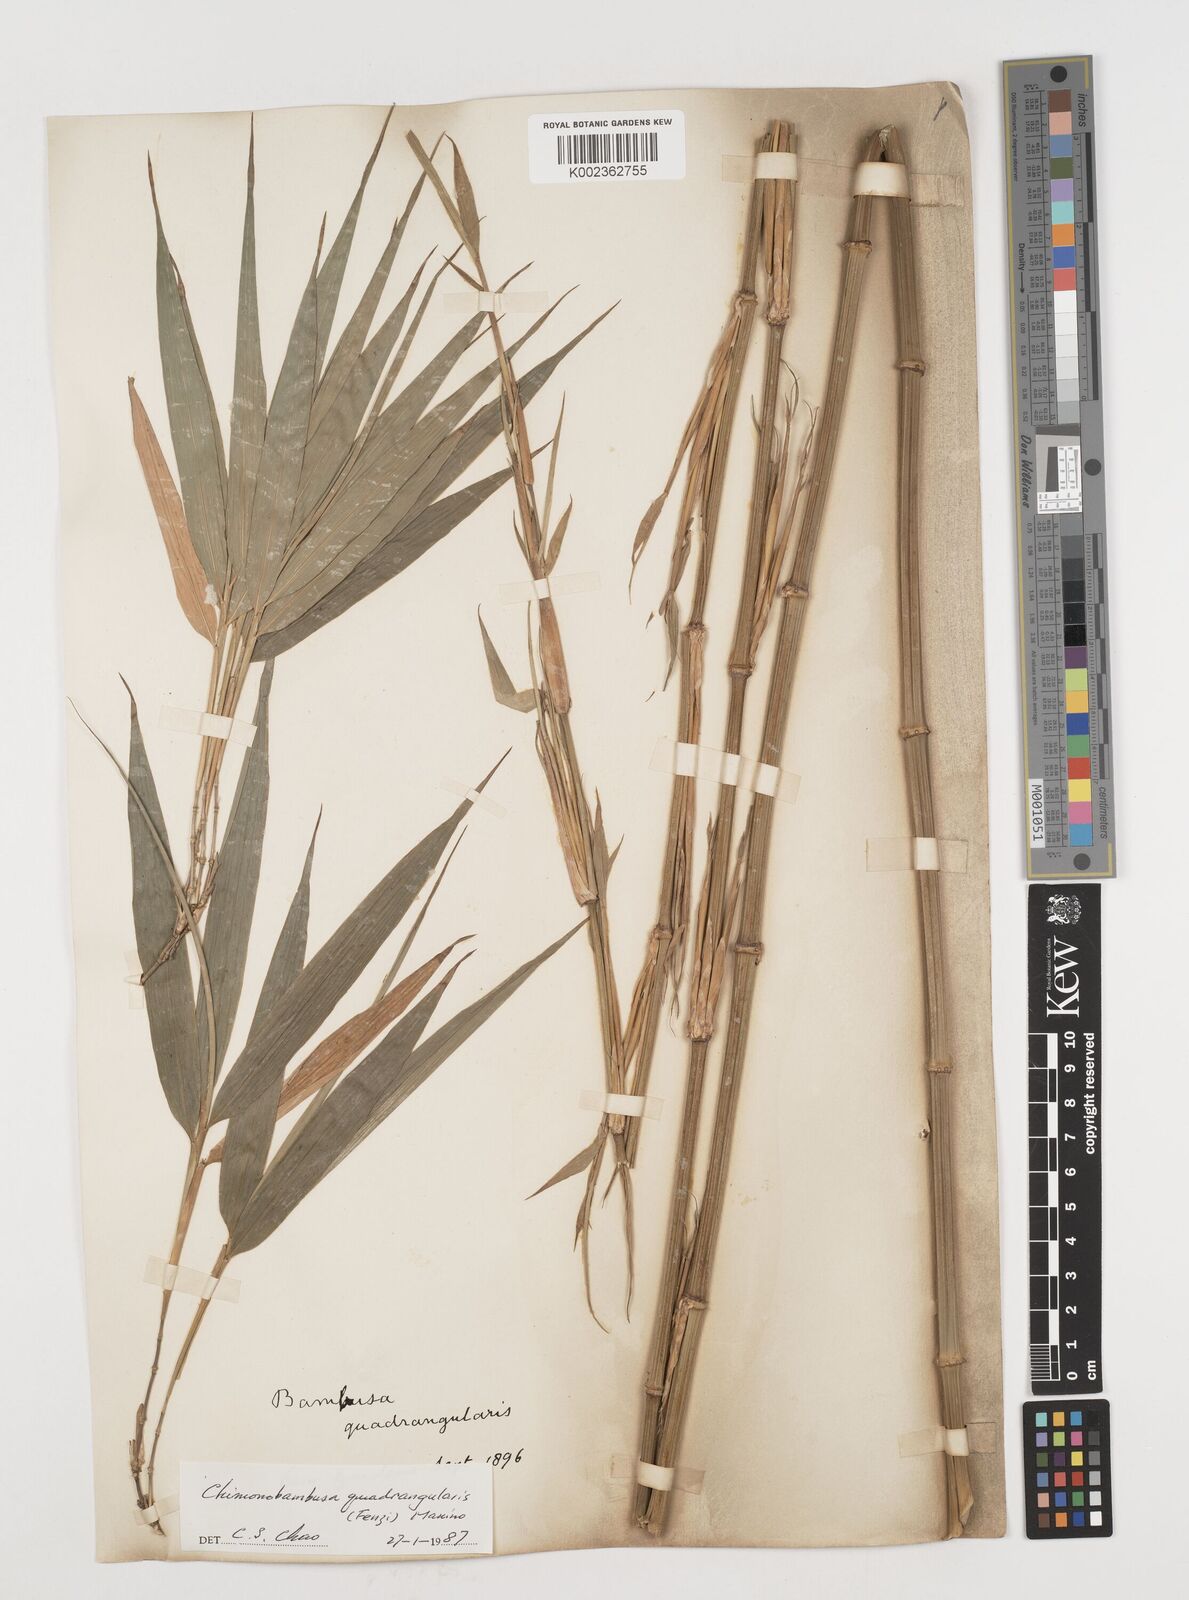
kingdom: Plantae
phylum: Tracheophyta
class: Liliopsida
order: Poales
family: Poaceae
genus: Chimonobambusa
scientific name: Chimonobambusa quadrangularis
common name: Square-stemmed bamboo
